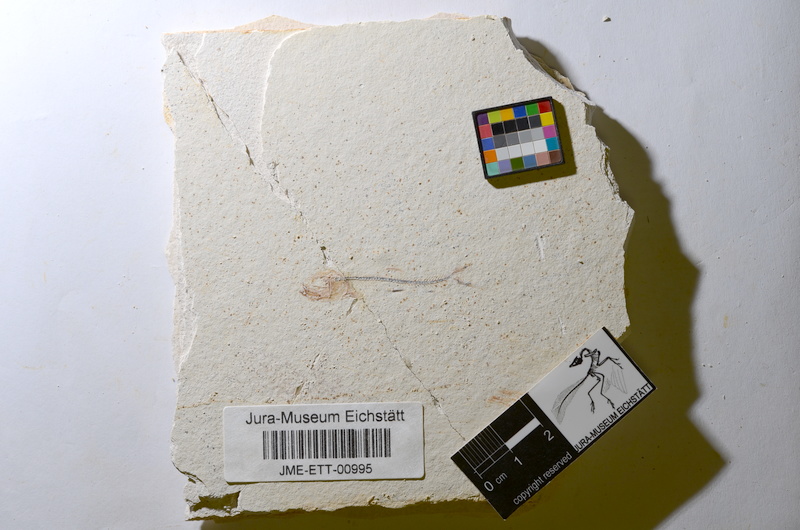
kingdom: Animalia
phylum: Chordata
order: Salmoniformes
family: Orthogonikleithridae
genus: Orthogonikleithrus
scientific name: Orthogonikleithrus hoelli
